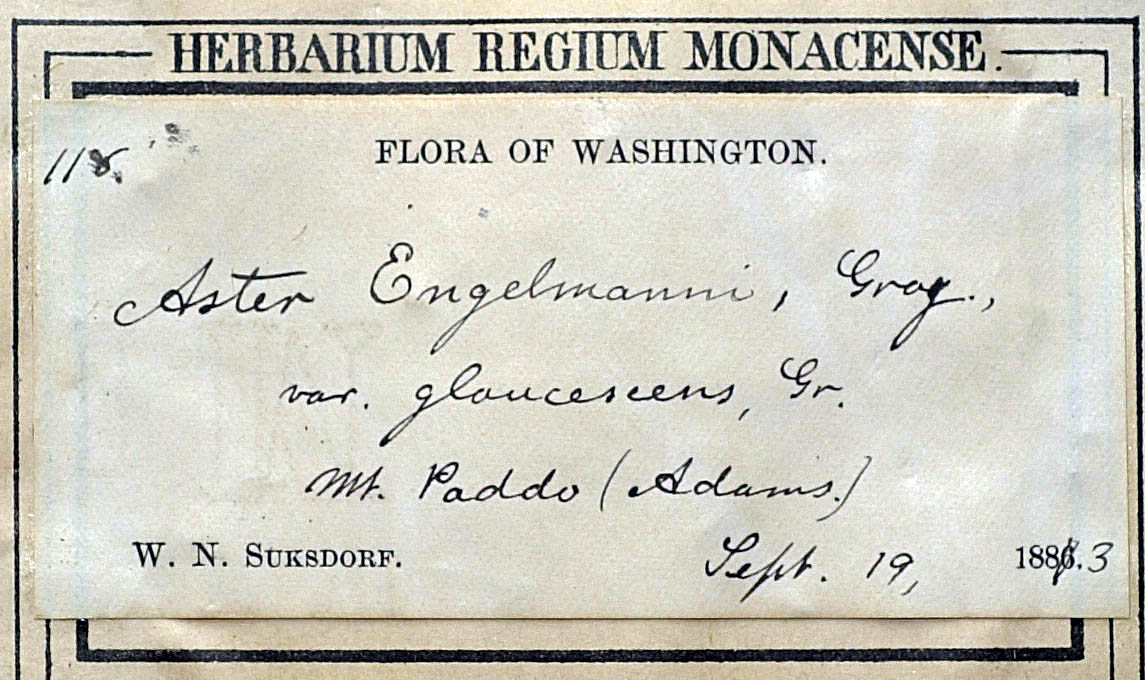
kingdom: Plantae
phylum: Tracheophyta
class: Magnoliopsida
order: Asterales
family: Asteraceae
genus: Eucephalus
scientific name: Eucephalus glaucescens
